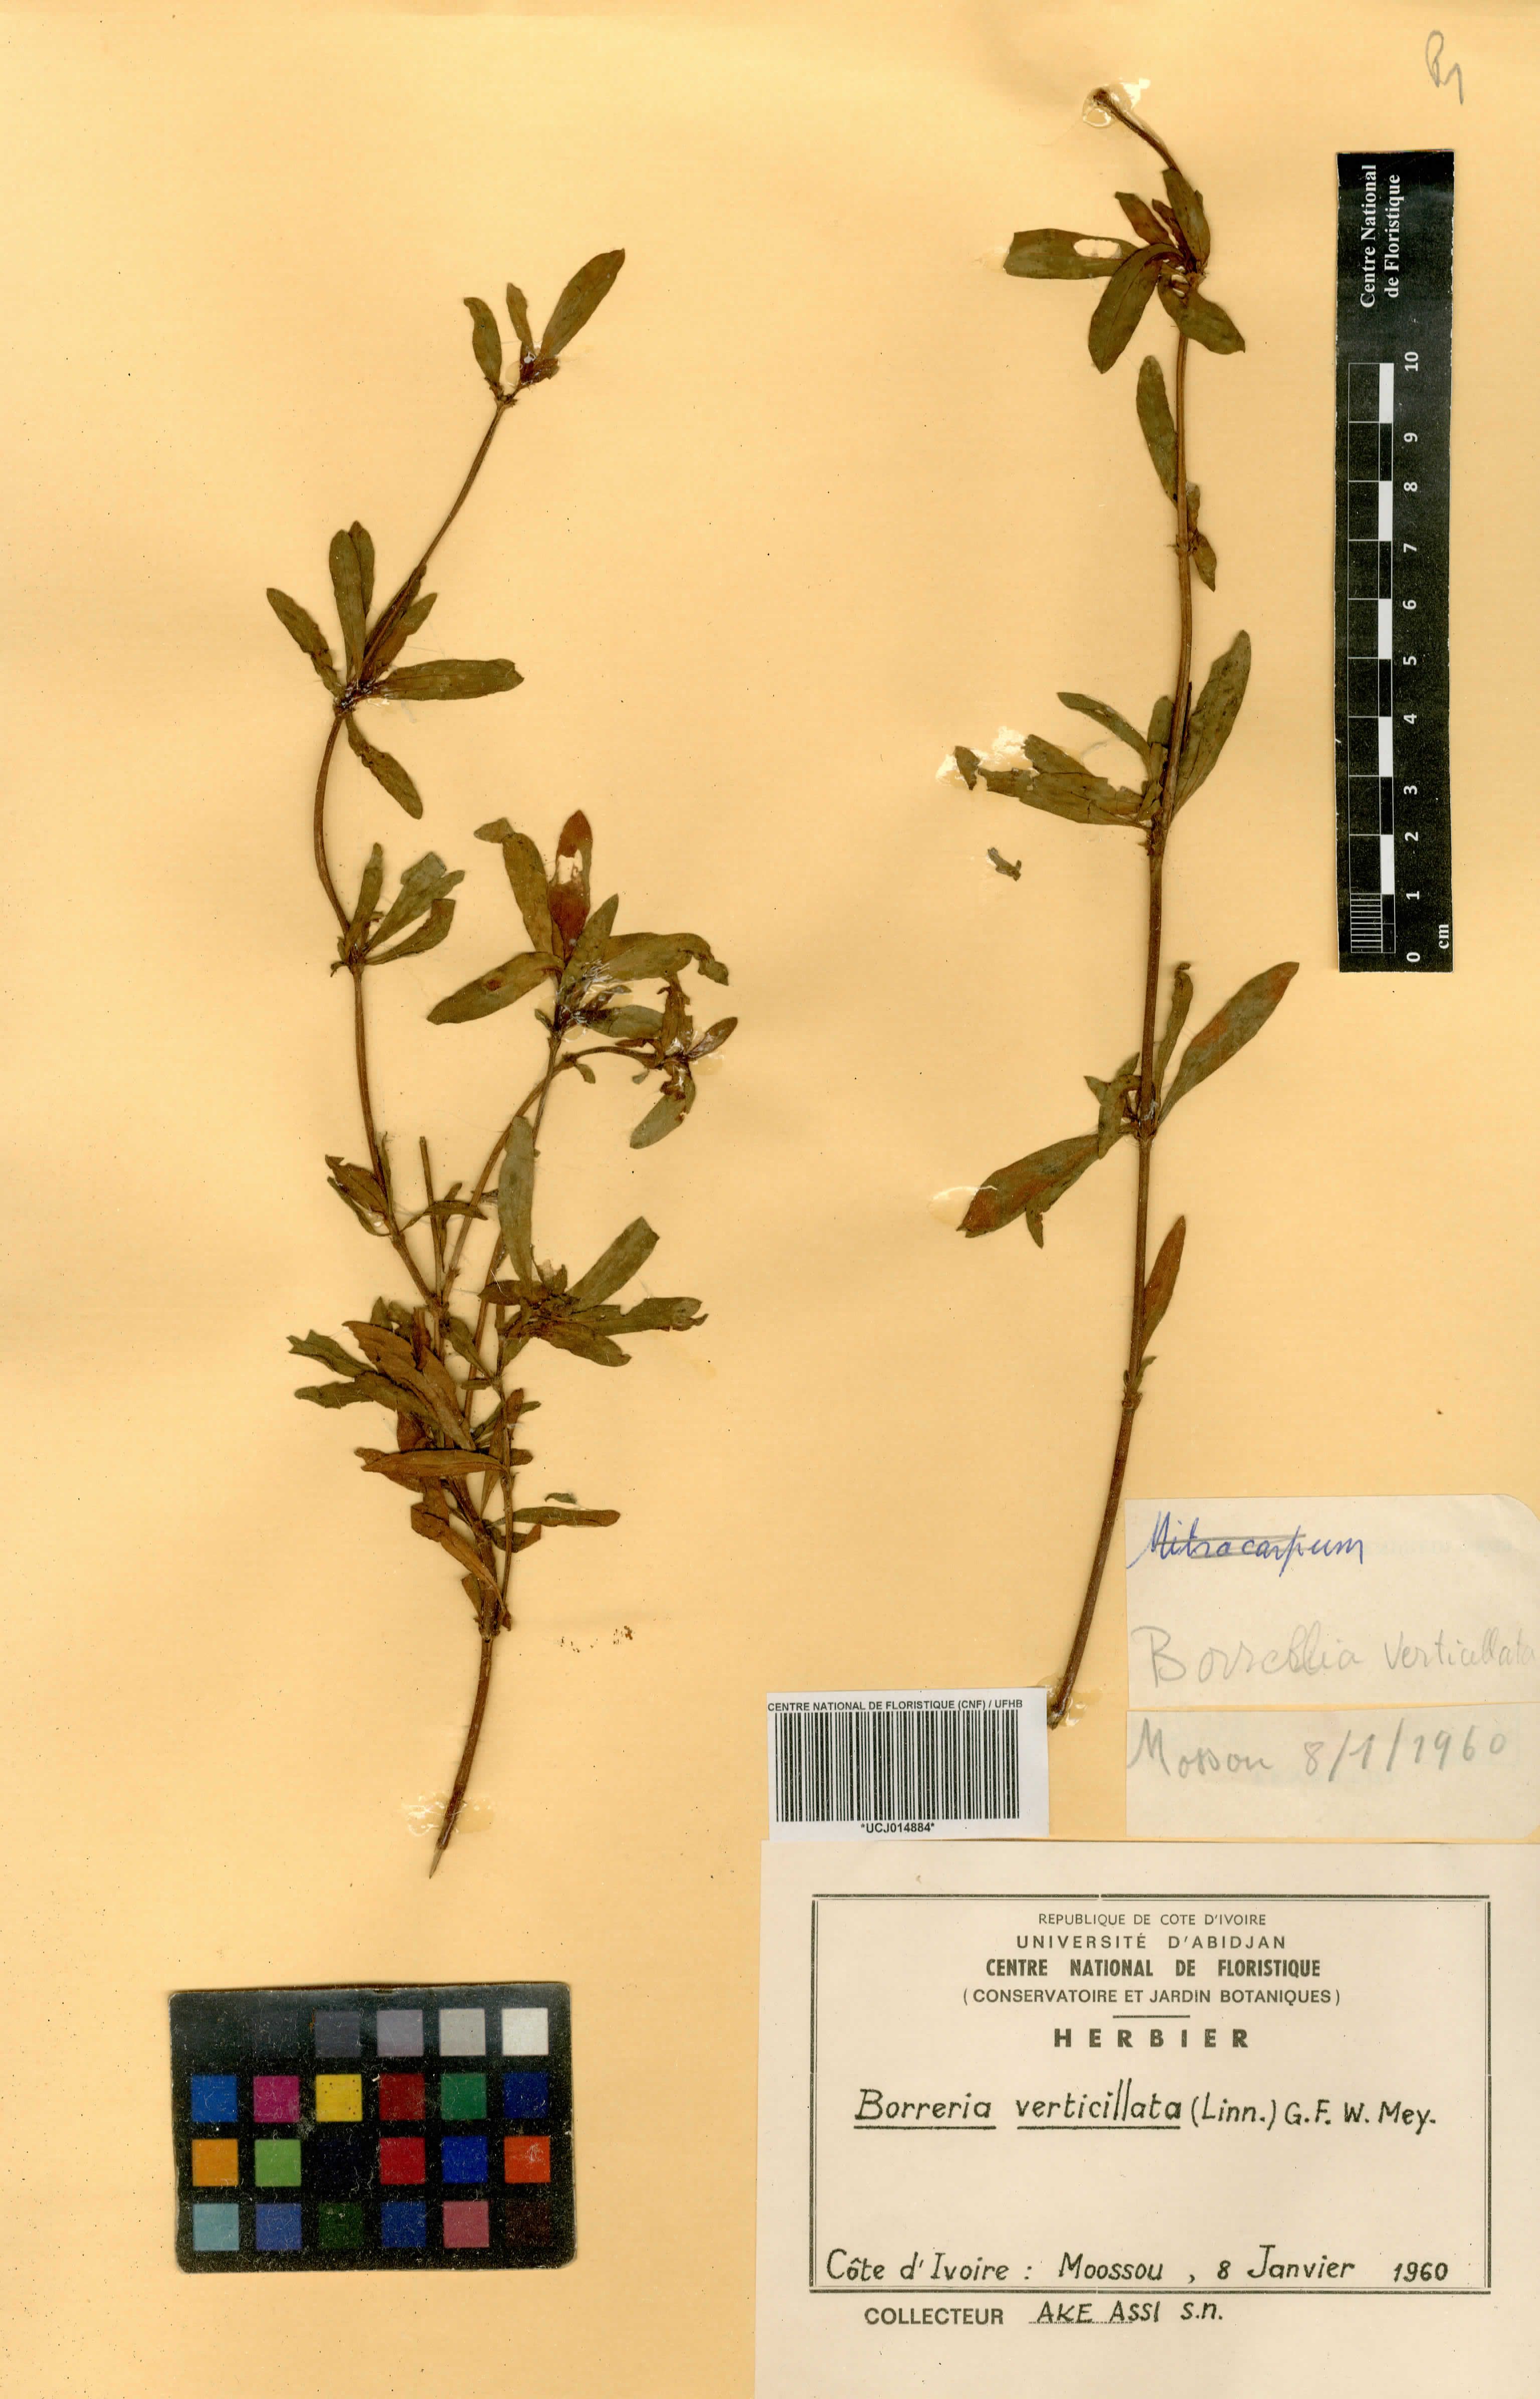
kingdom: Plantae
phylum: Tracheophyta
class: Magnoliopsida
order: Gentianales
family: Rubiaceae
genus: Spermacoce
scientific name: Spermacoce verticillata
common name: Shrubby false buttonweed
